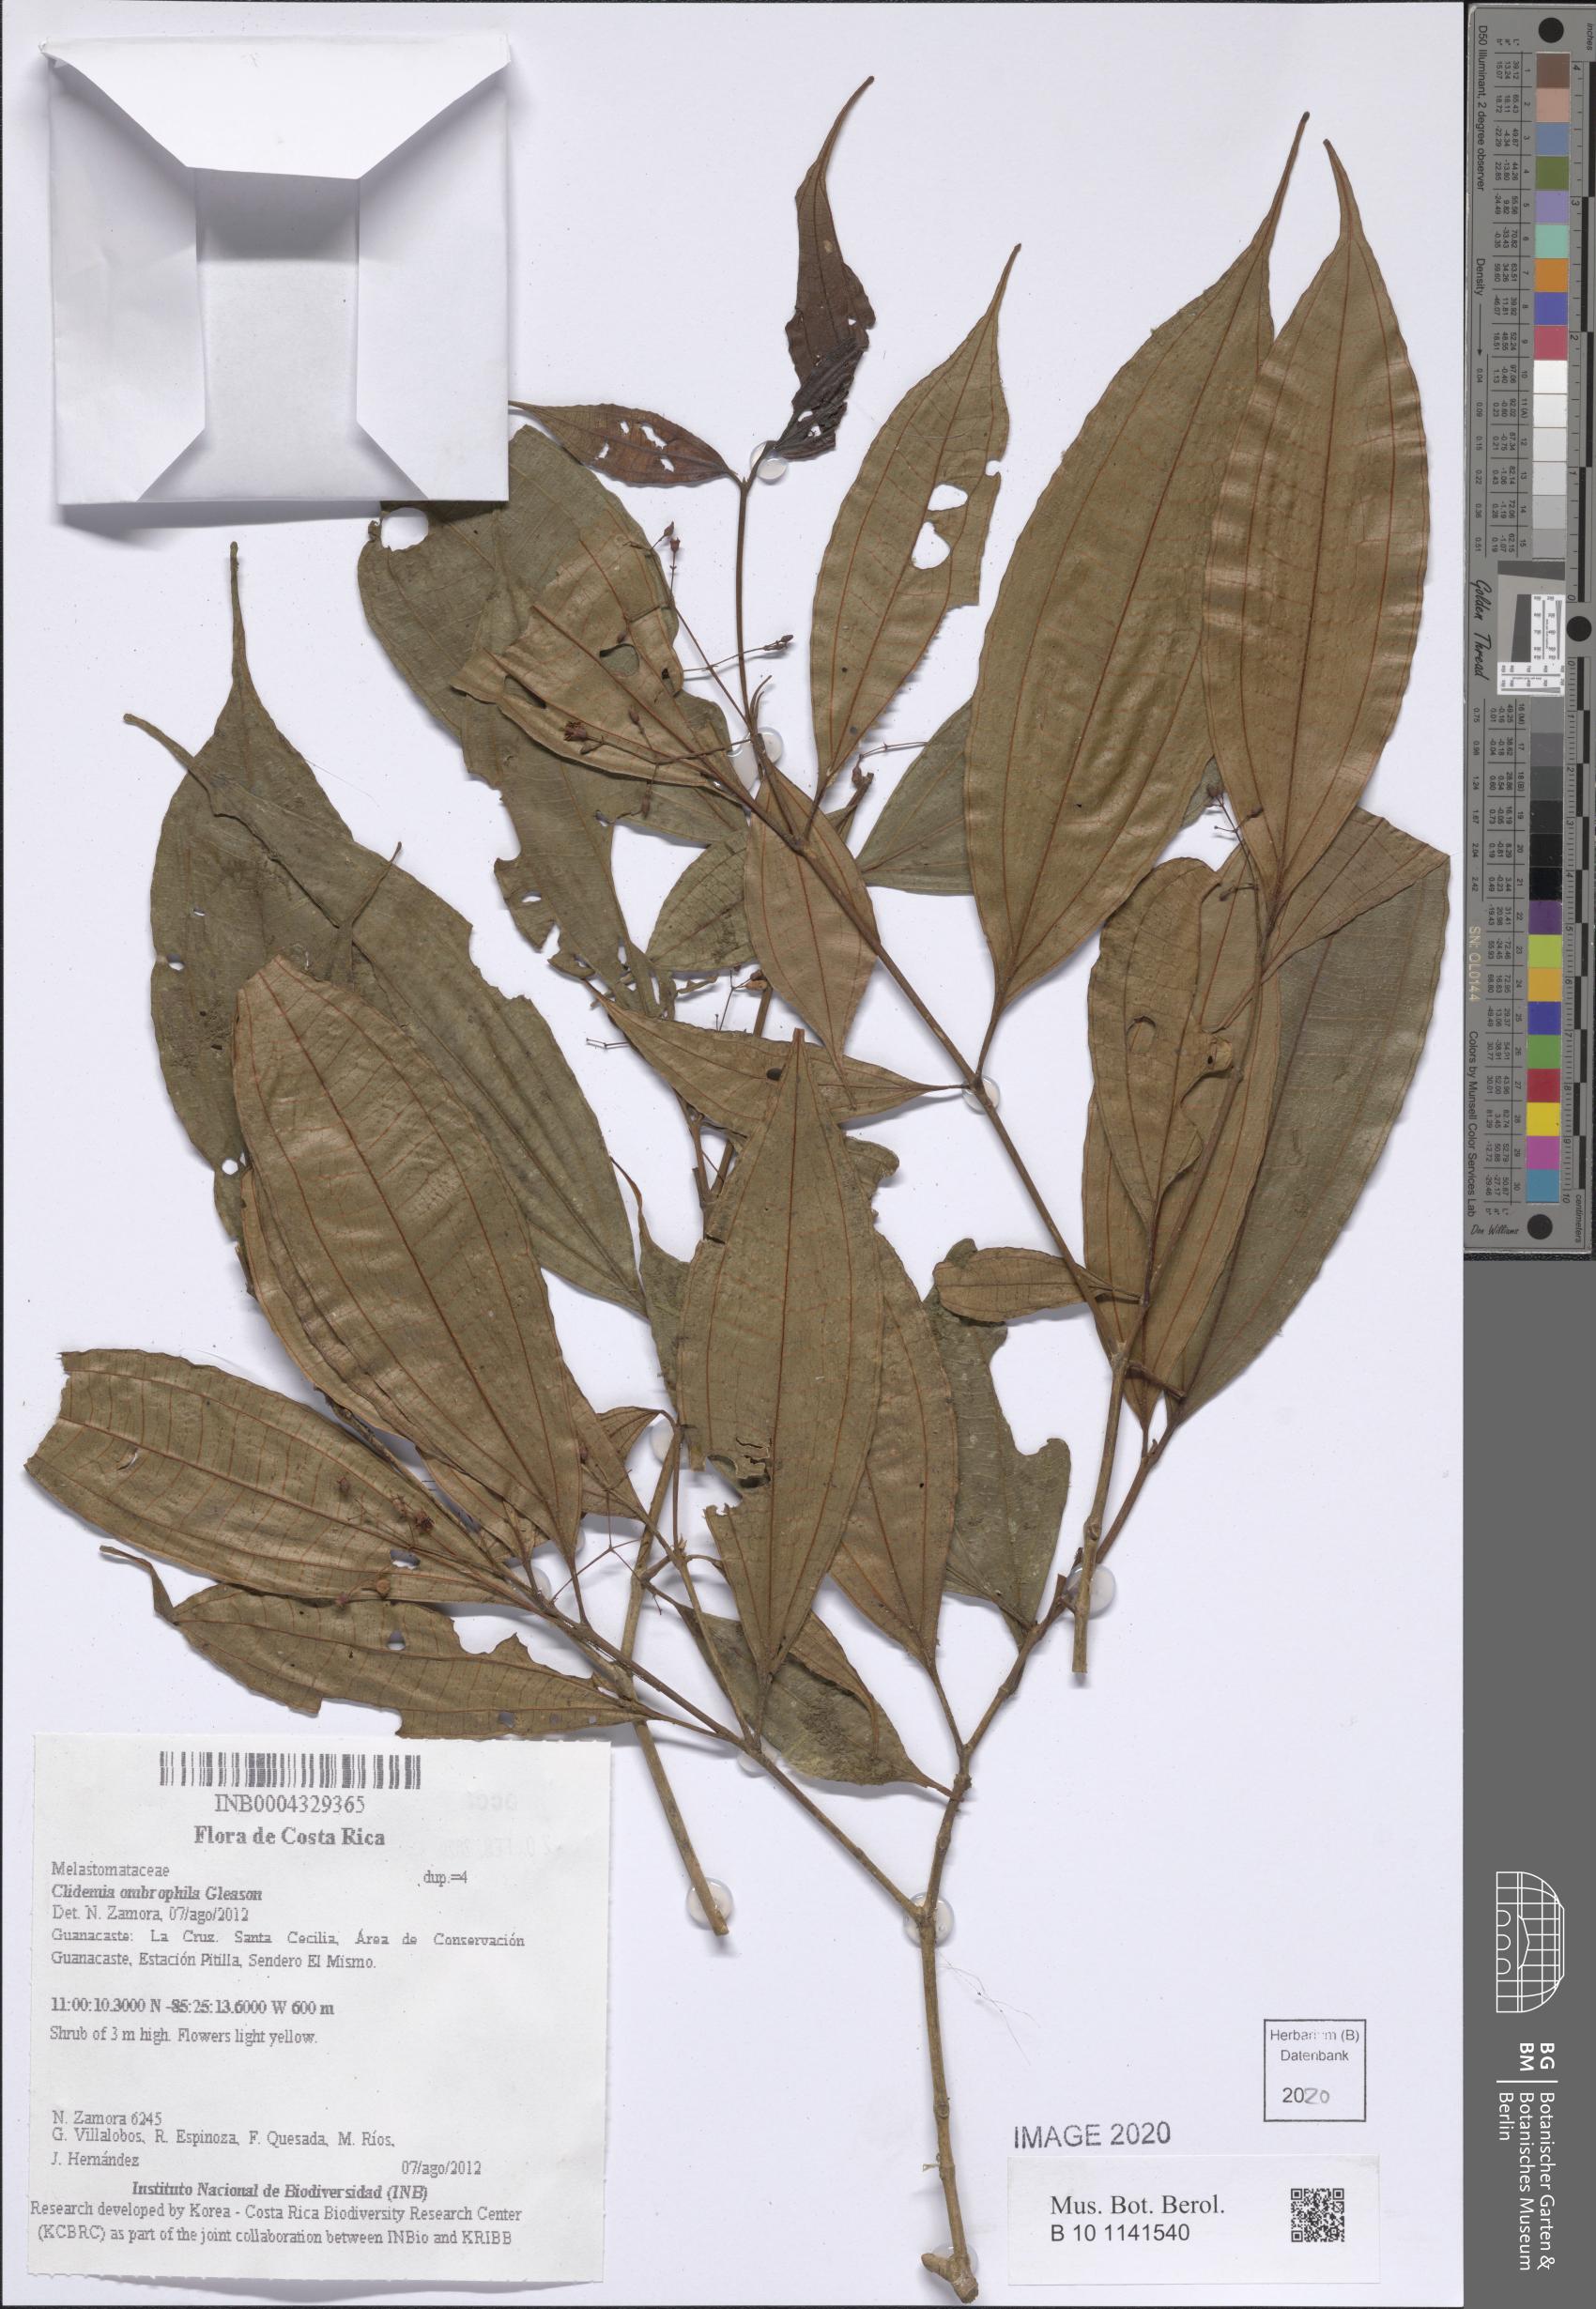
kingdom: Plantae
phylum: Tracheophyta
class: Magnoliopsida
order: Myrtales
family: Melastomataceae
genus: Miconia
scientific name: Miconia silviphila
